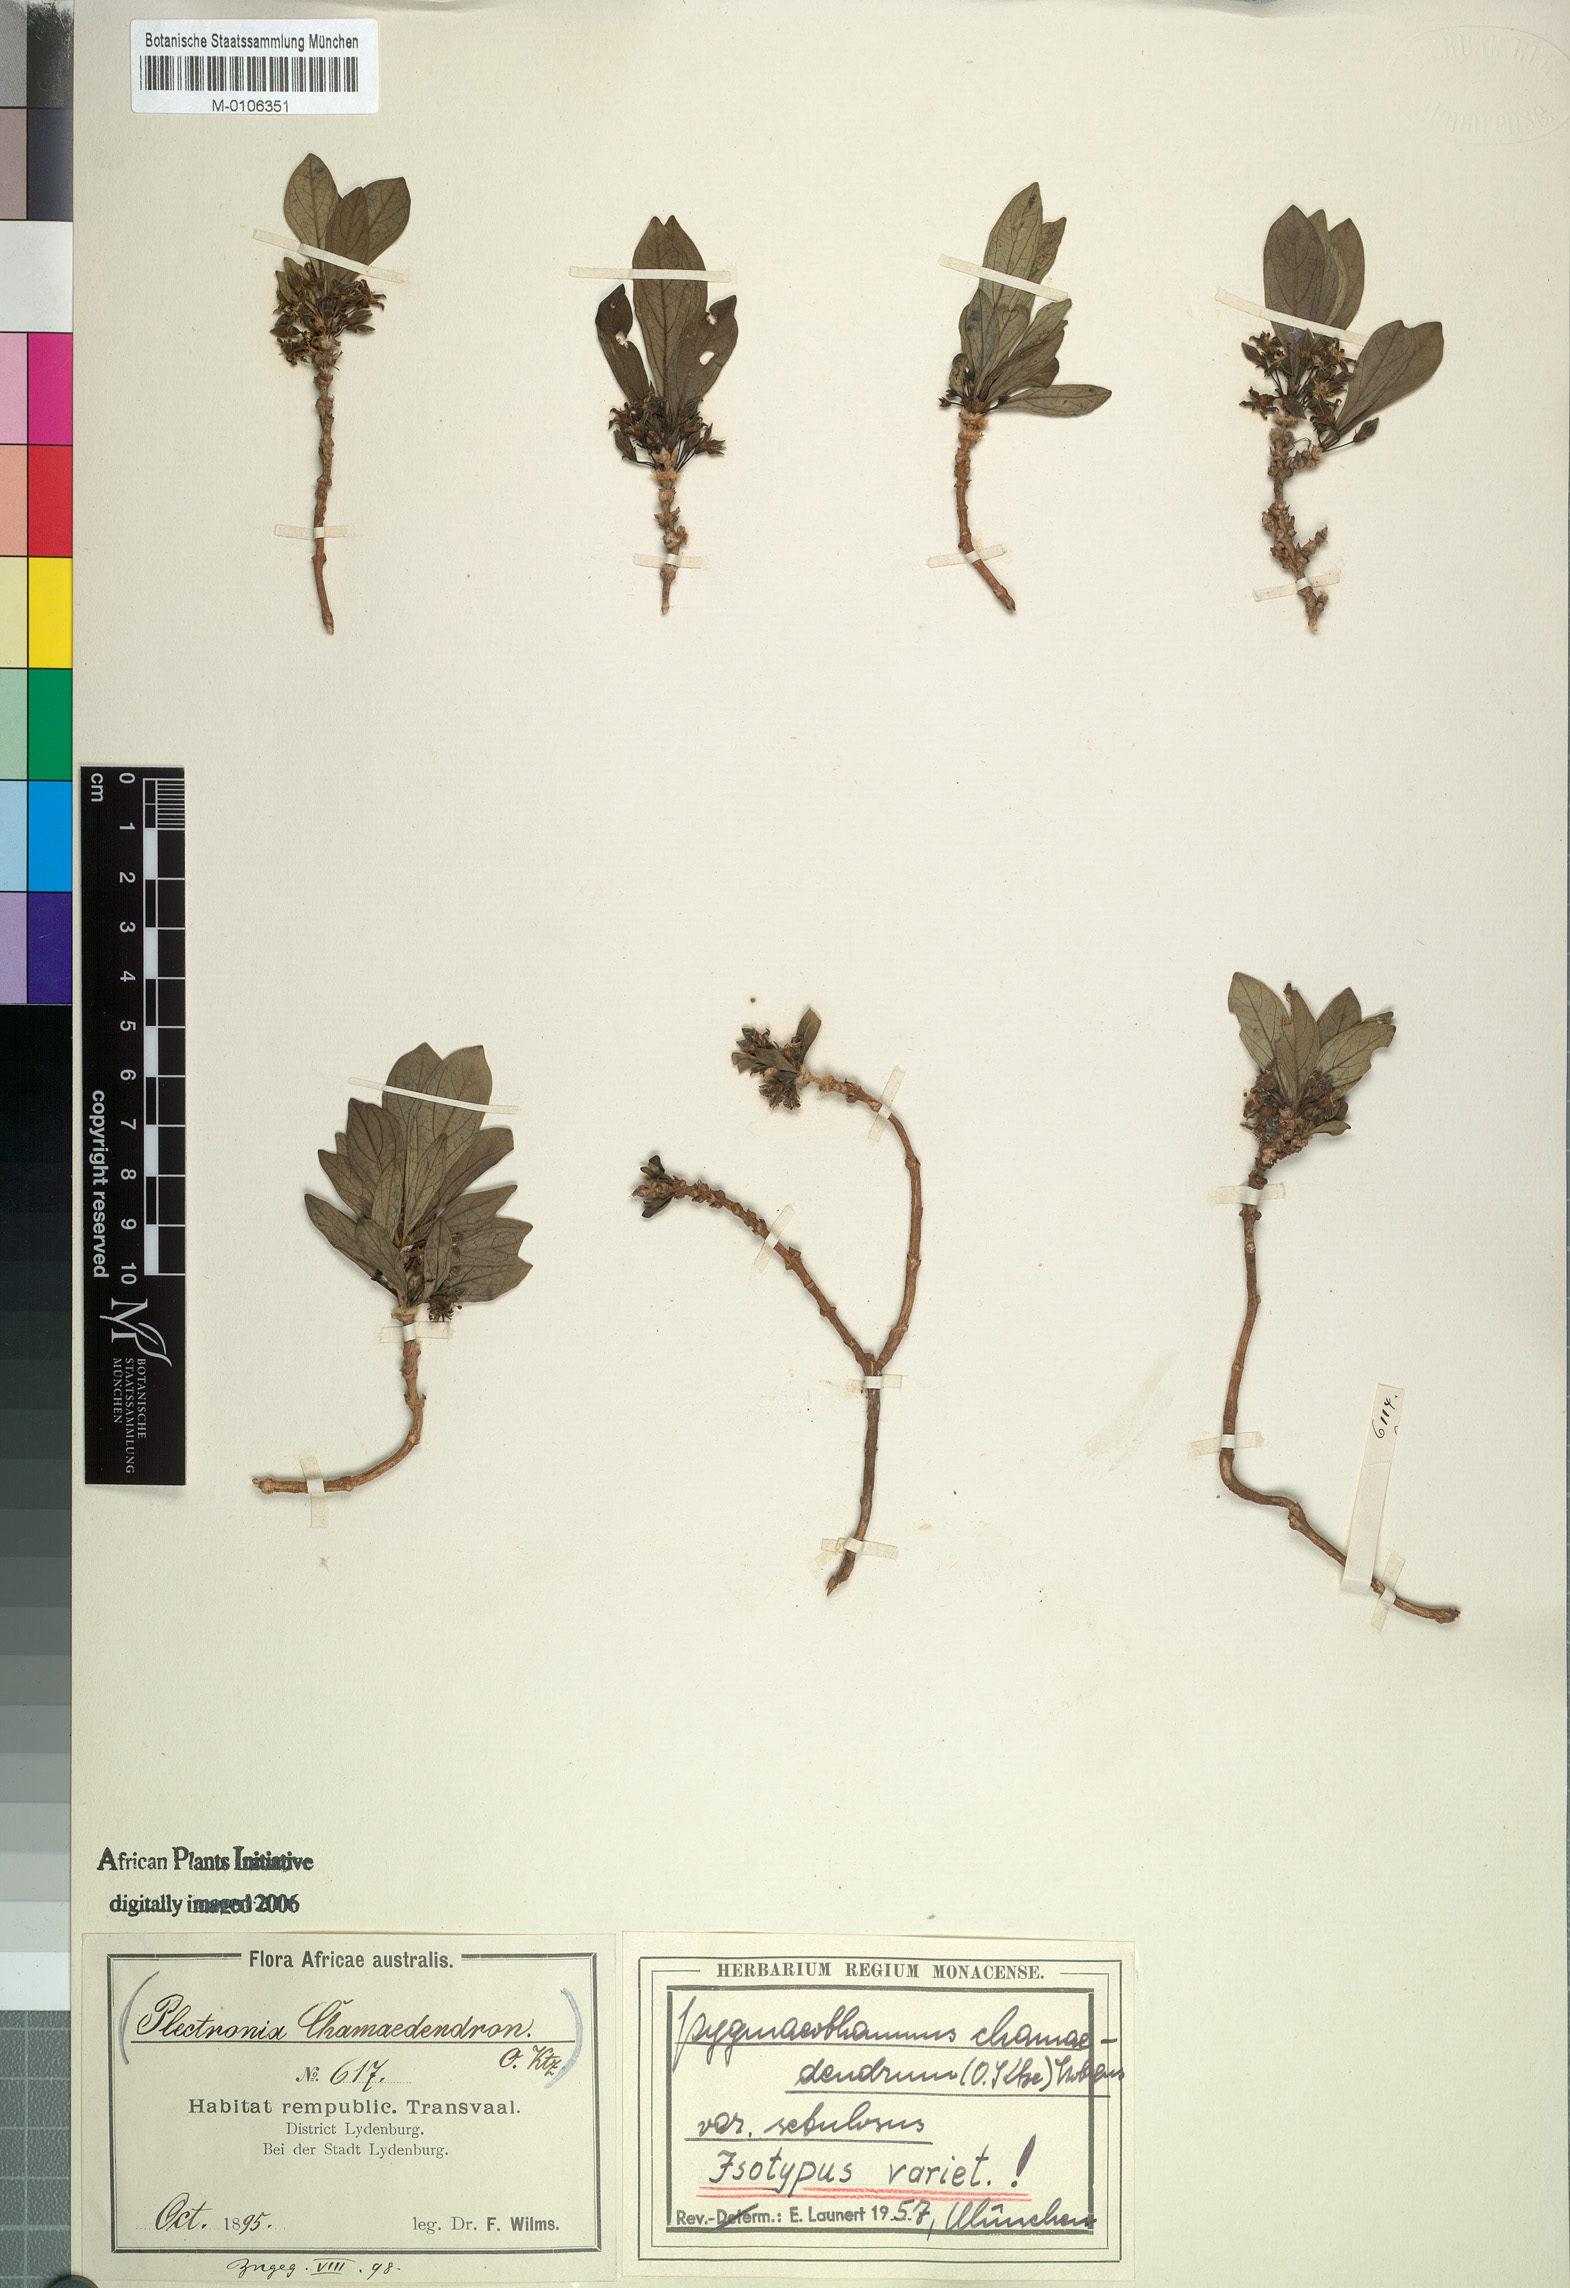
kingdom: Plantae
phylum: Tracheophyta
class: Magnoliopsida
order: Gentianales
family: Rubiaceae
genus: Bridsonia
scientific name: Bridsonia chamaedendrum
